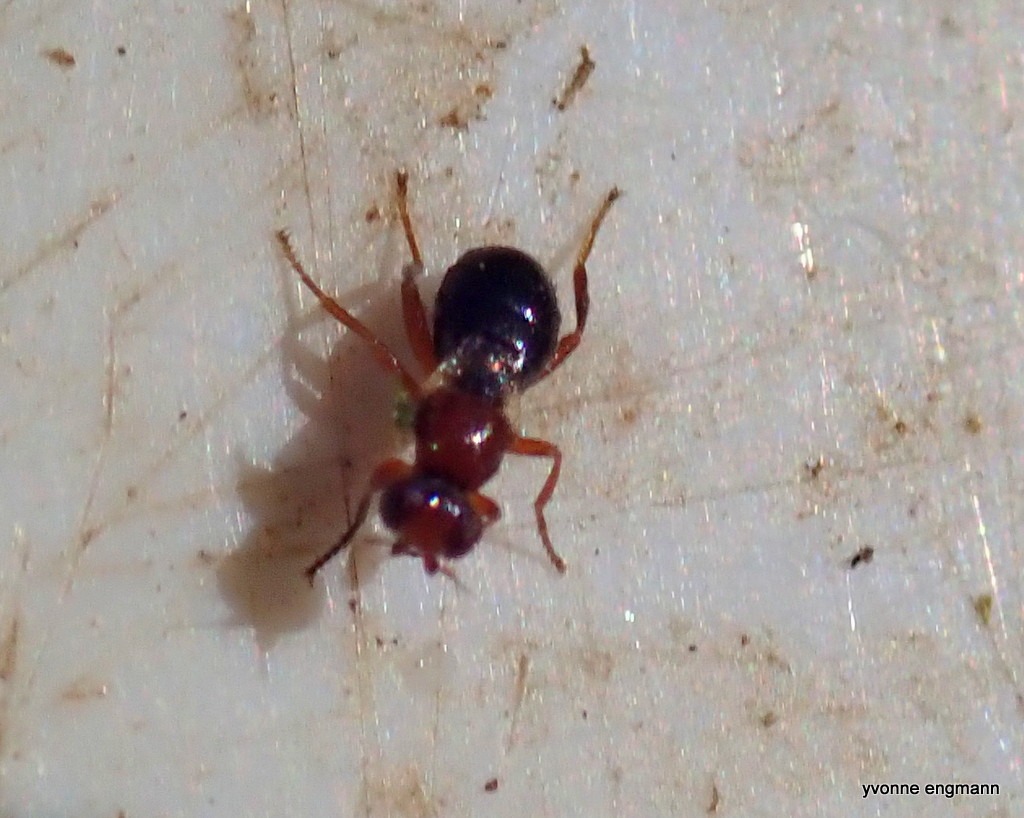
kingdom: Animalia
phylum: Arthropoda
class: Insecta
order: Diptera
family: Chloropidae
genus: Elachiptera
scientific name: Elachiptera brevipennis
